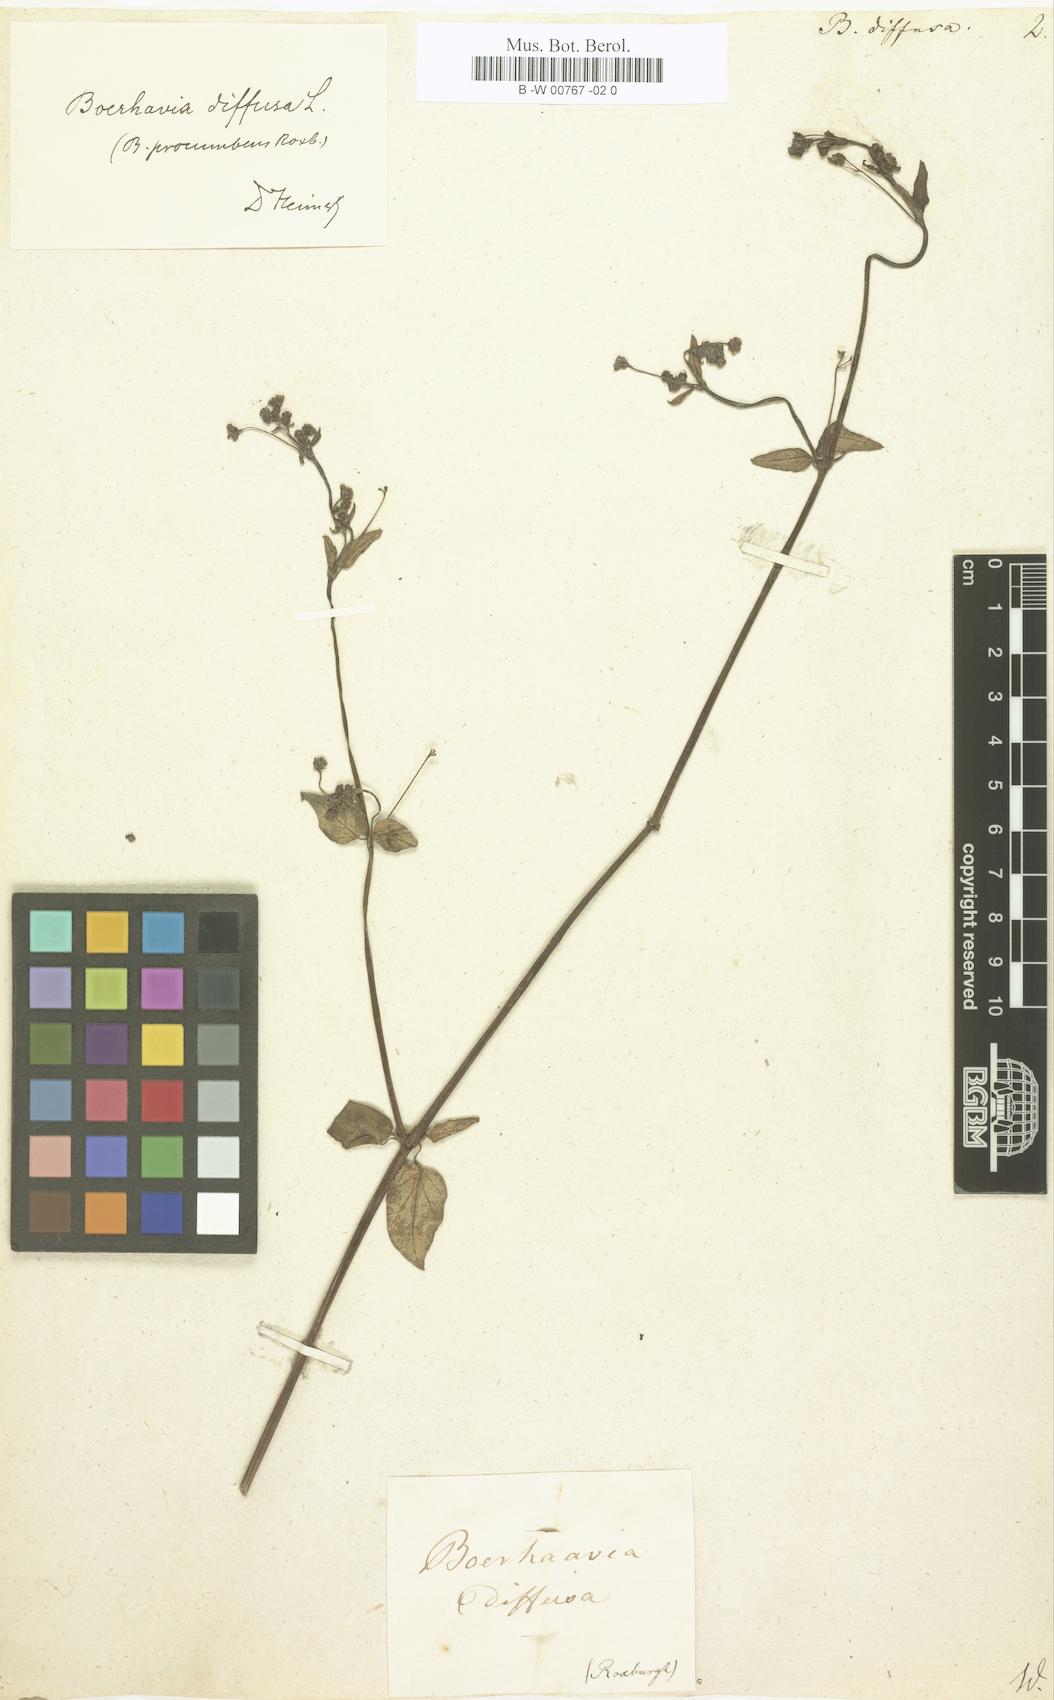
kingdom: Plantae
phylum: Tracheophyta
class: Magnoliopsida
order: Caryophyllales
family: Nyctaginaceae
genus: Boerhavia
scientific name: Boerhavia diffusa
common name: Red spiderling
